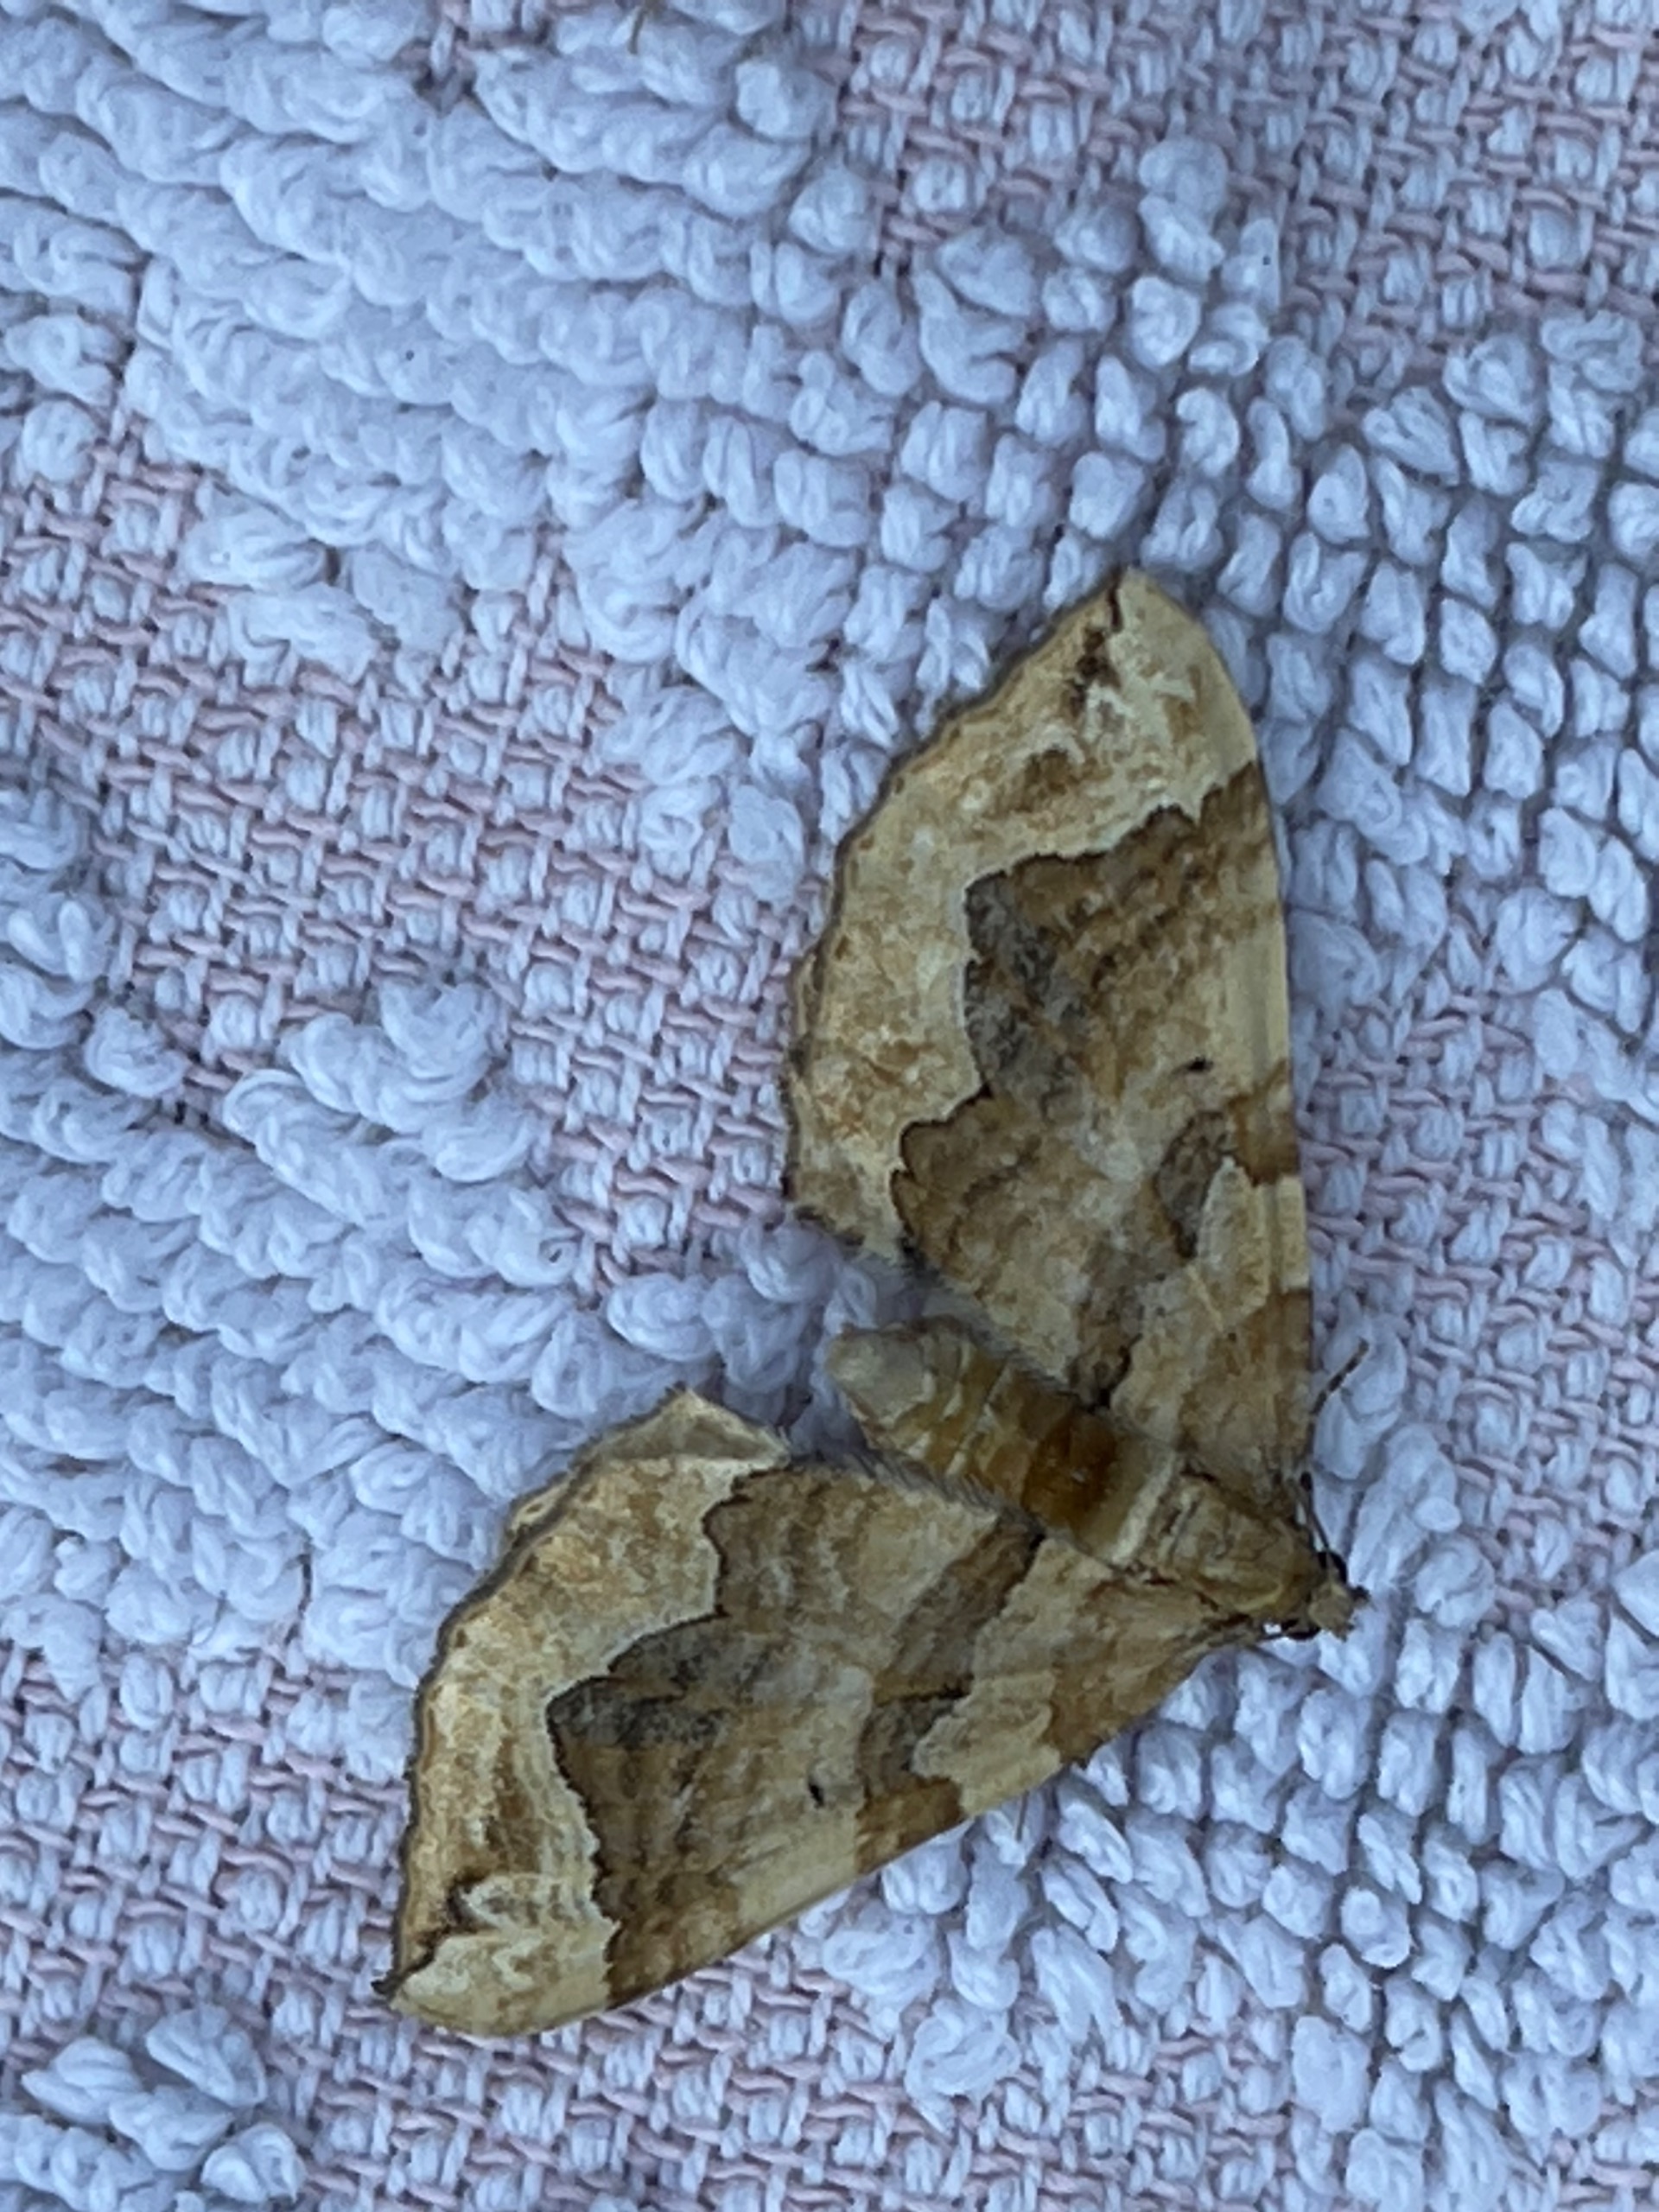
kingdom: Animalia
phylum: Arthropoda
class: Insecta
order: Lepidoptera
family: Geometridae
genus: Pelurga
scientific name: Pelurga comitata
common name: Gåsefod-bladmåler
